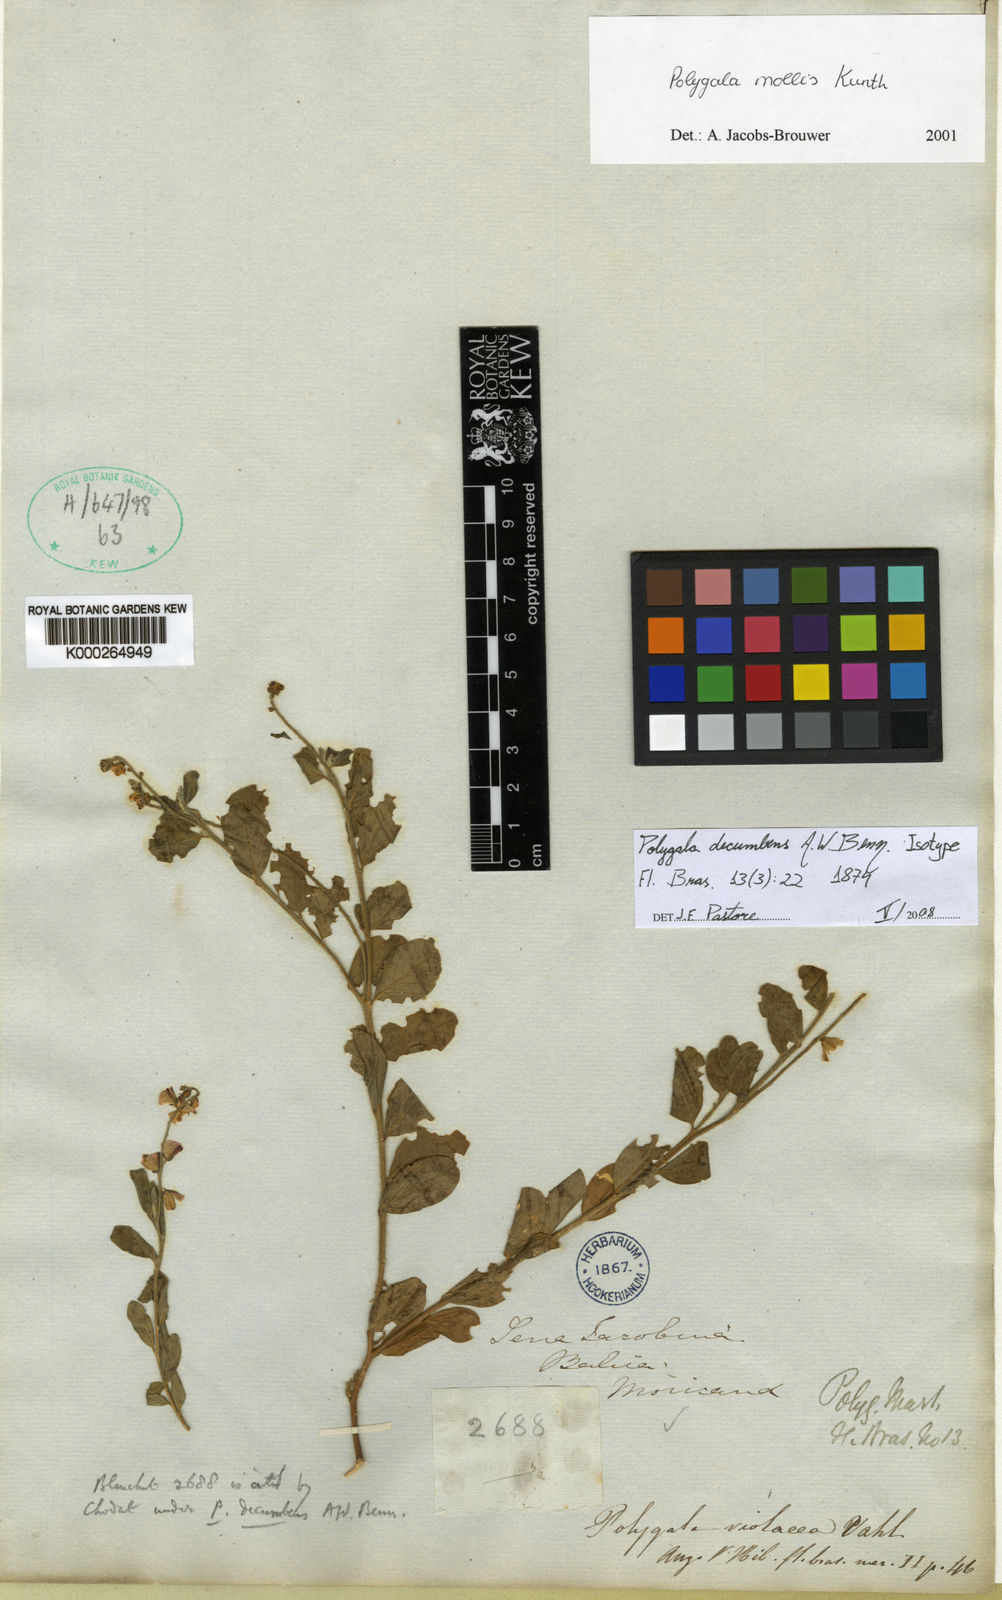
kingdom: Plantae
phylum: Tracheophyta
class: Magnoliopsida
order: Fabales
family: Polygalaceae
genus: Asemeia
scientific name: Asemeia ovata
